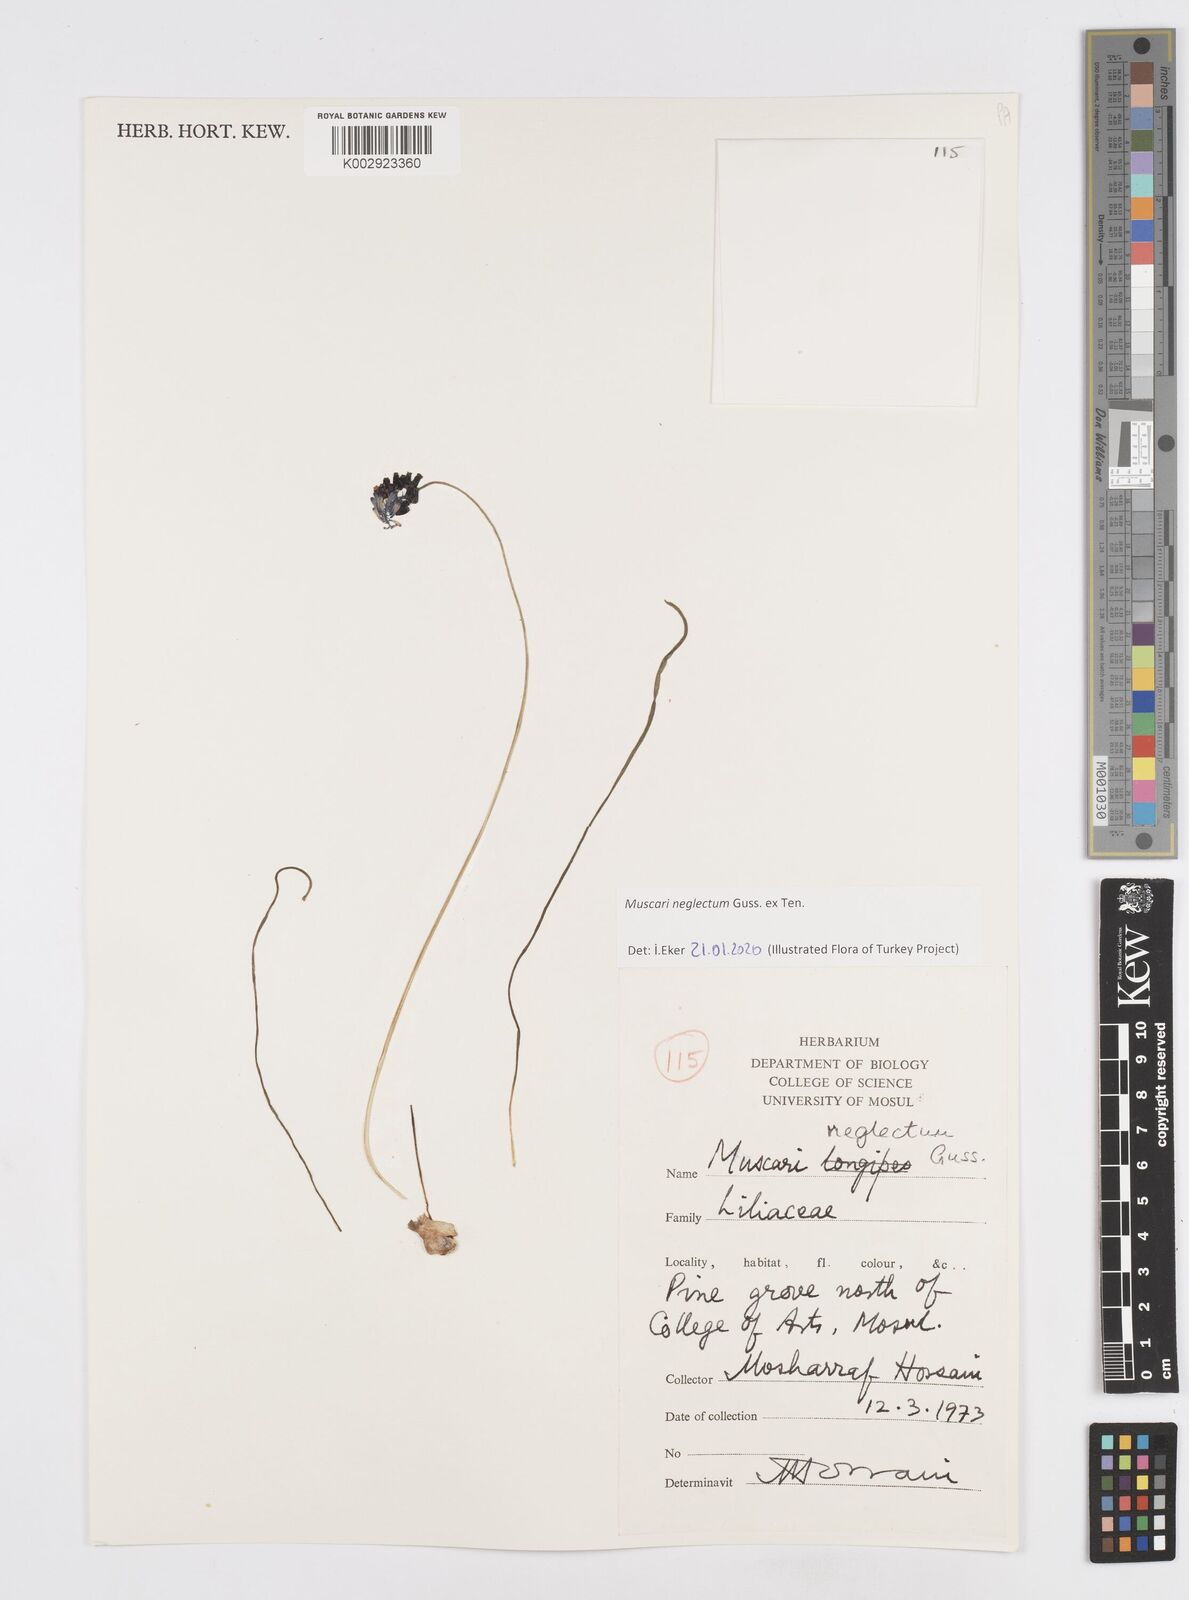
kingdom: Plantae
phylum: Tracheophyta
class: Liliopsida
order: Asparagales
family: Asparagaceae
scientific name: Asparagaceae
